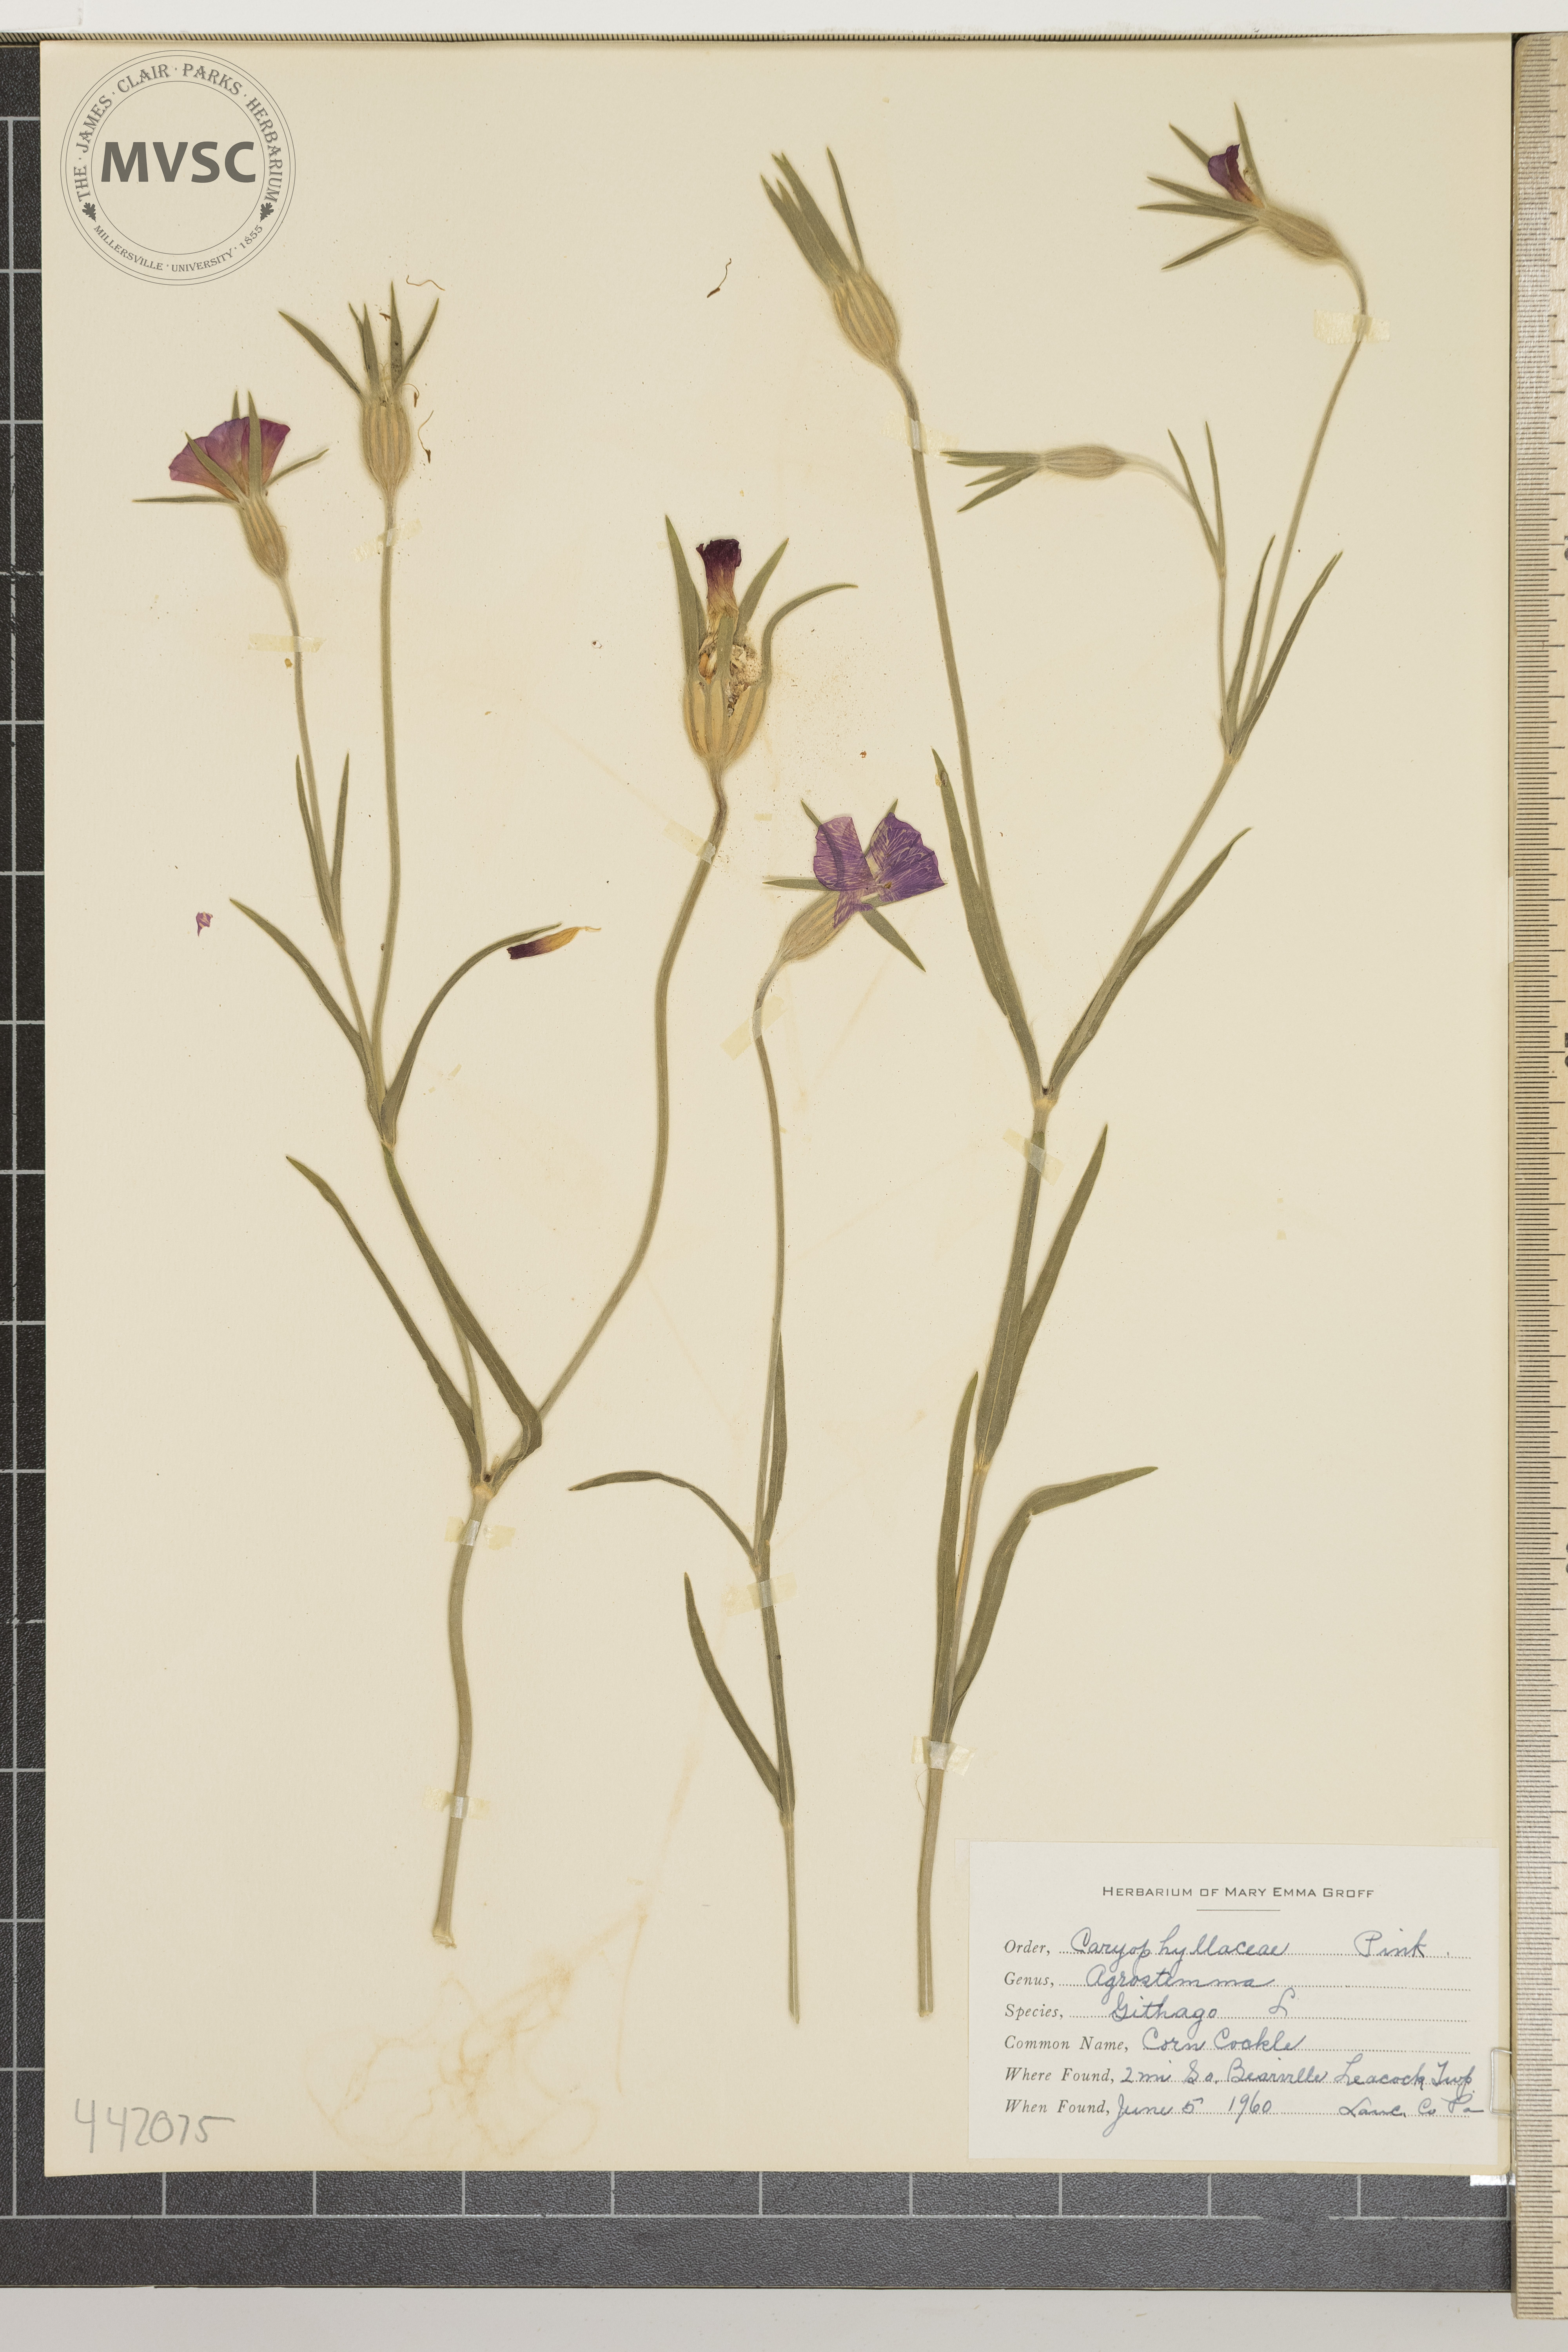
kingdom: Plantae
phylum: Tracheophyta
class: Magnoliopsida
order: Caryophyllales
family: Caryophyllaceae
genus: Agrostemma
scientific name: Agrostemma githago
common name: Corn cockle
